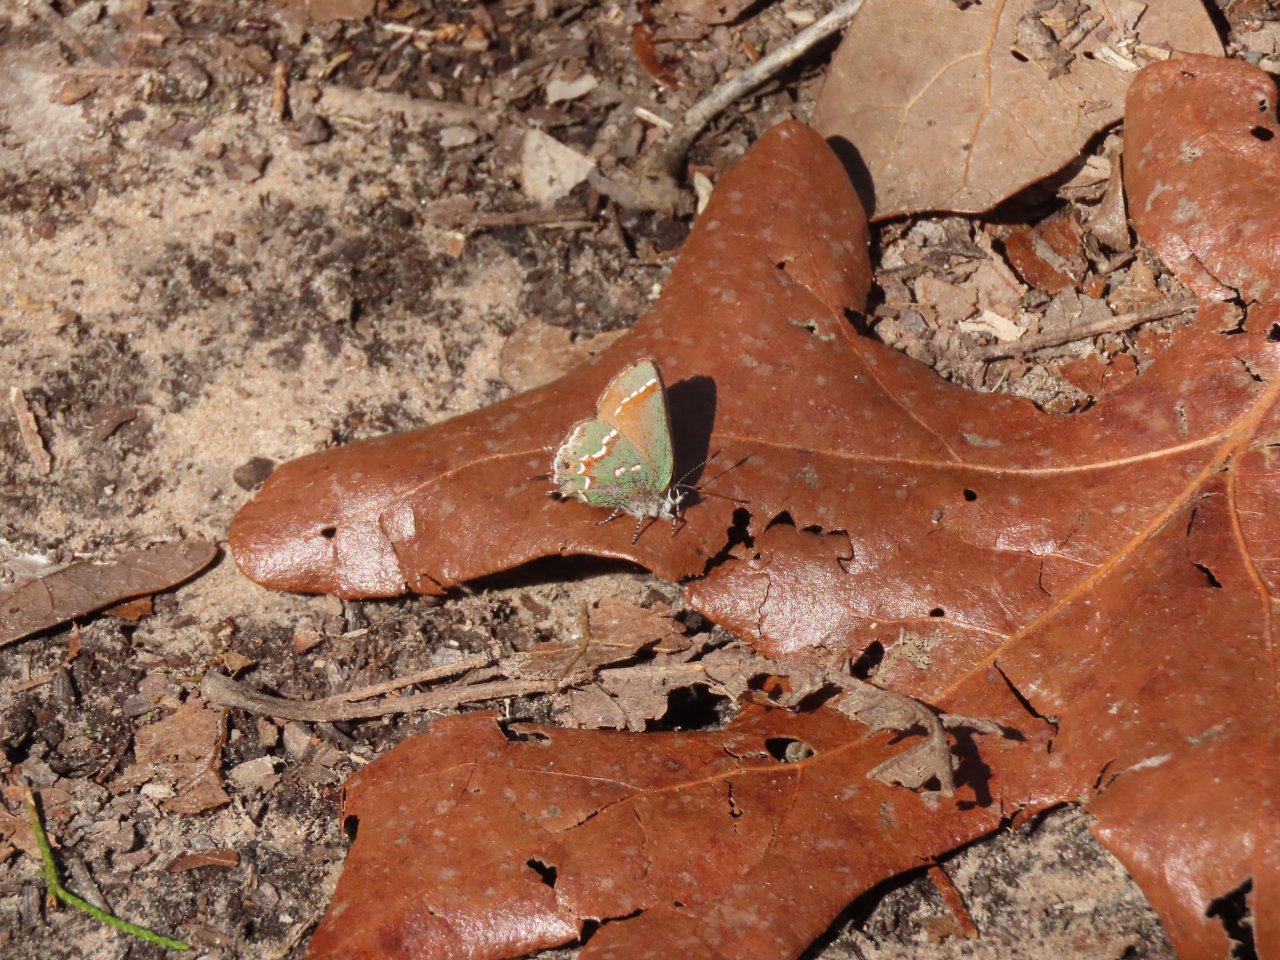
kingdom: Animalia
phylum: Arthropoda
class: Insecta
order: Lepidoptera
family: Lycaenidae
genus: Mitoura
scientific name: Mitoura gryneus
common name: Juniper Hairstreak
